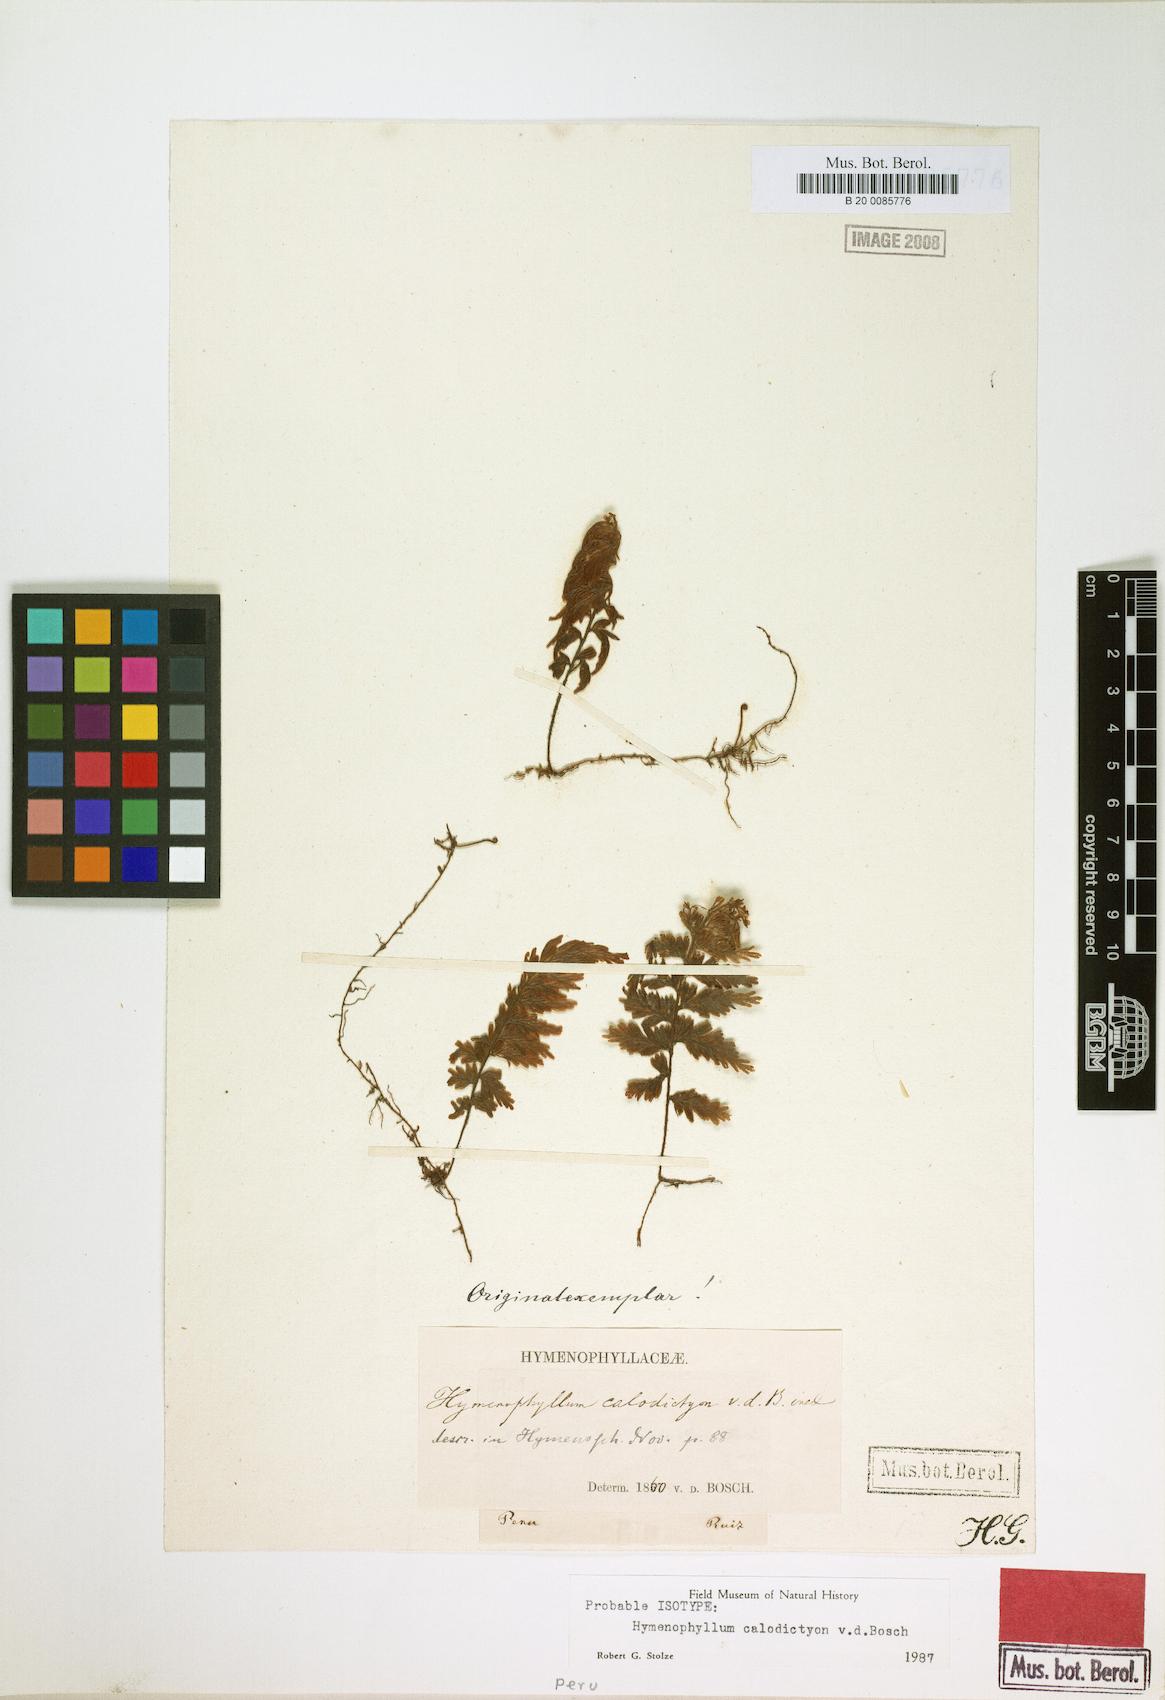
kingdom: Plantae
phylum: Tracheophyta
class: Polypodiopsida
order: Hymenophyllales
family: Hymenophyllaceae
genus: Hymenophyllum
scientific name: Hymenophyllum fucoides
